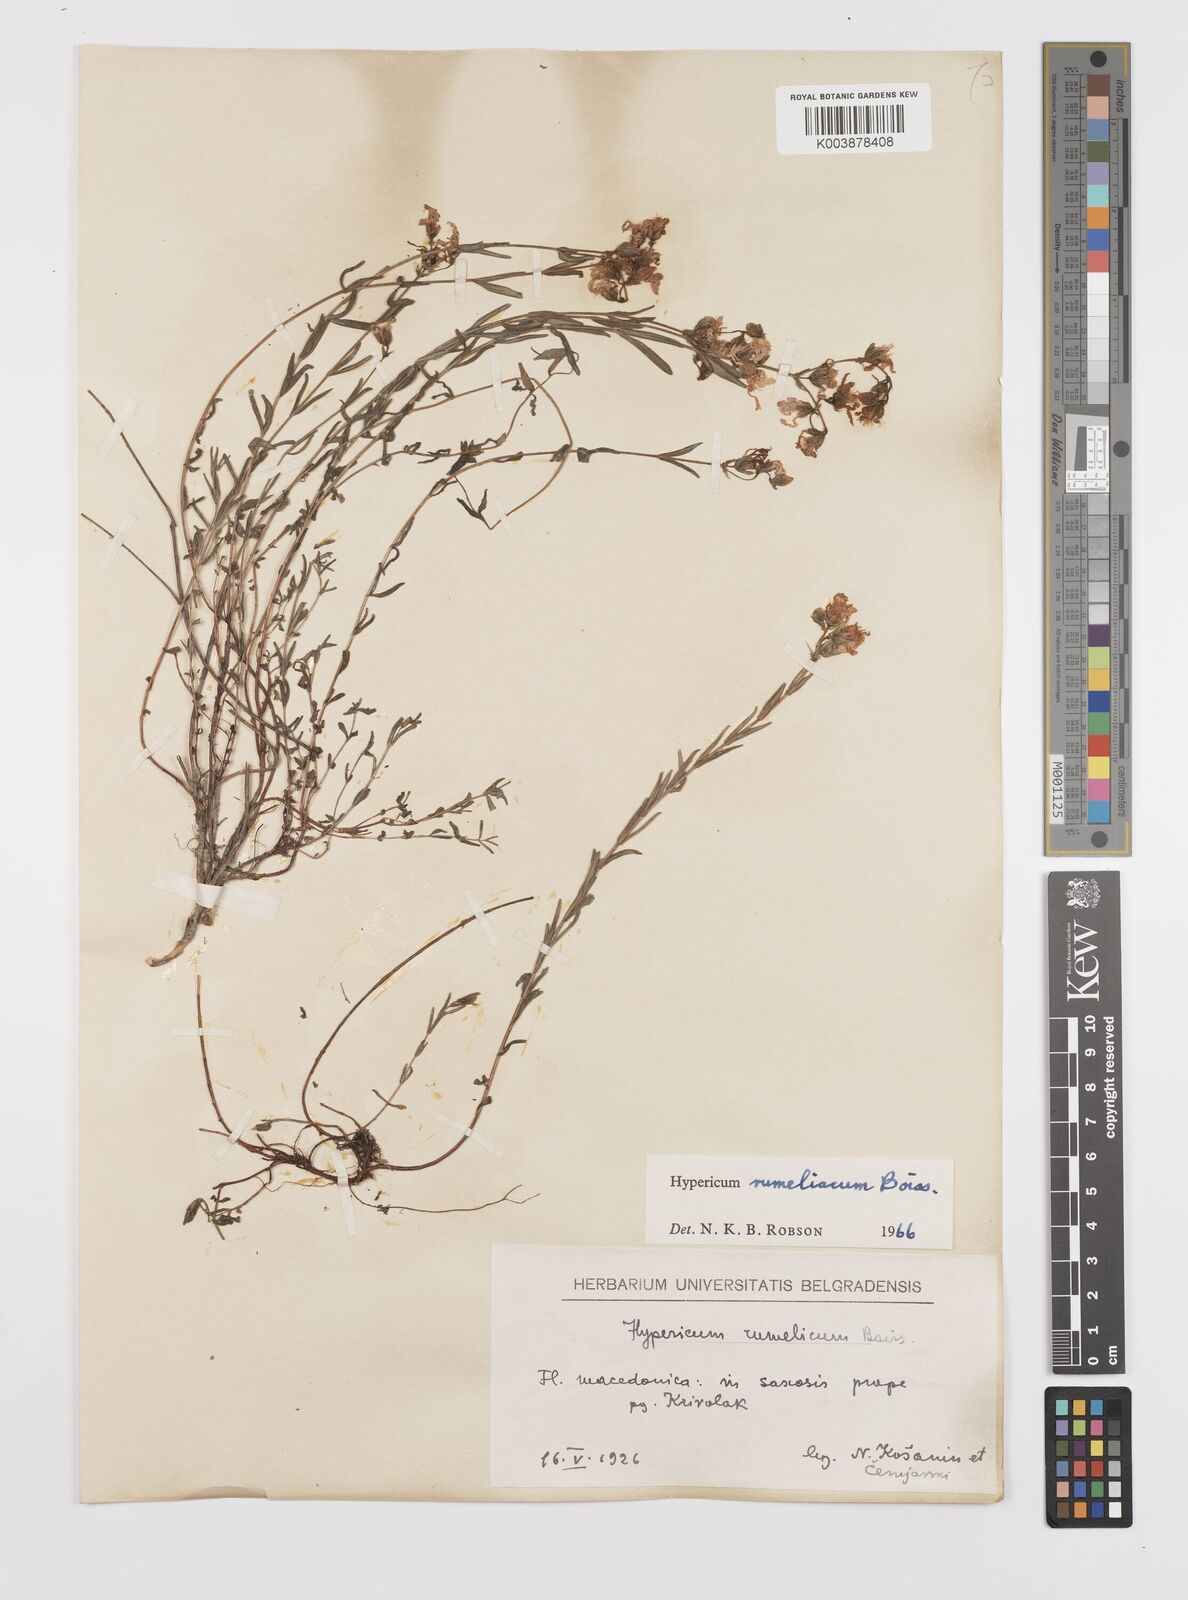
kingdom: Plantae
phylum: Tracheophyta
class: Magnoliopsida
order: Malpighiales
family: Hypericaceae
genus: Hypericum
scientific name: Hypericum rumeliacum
